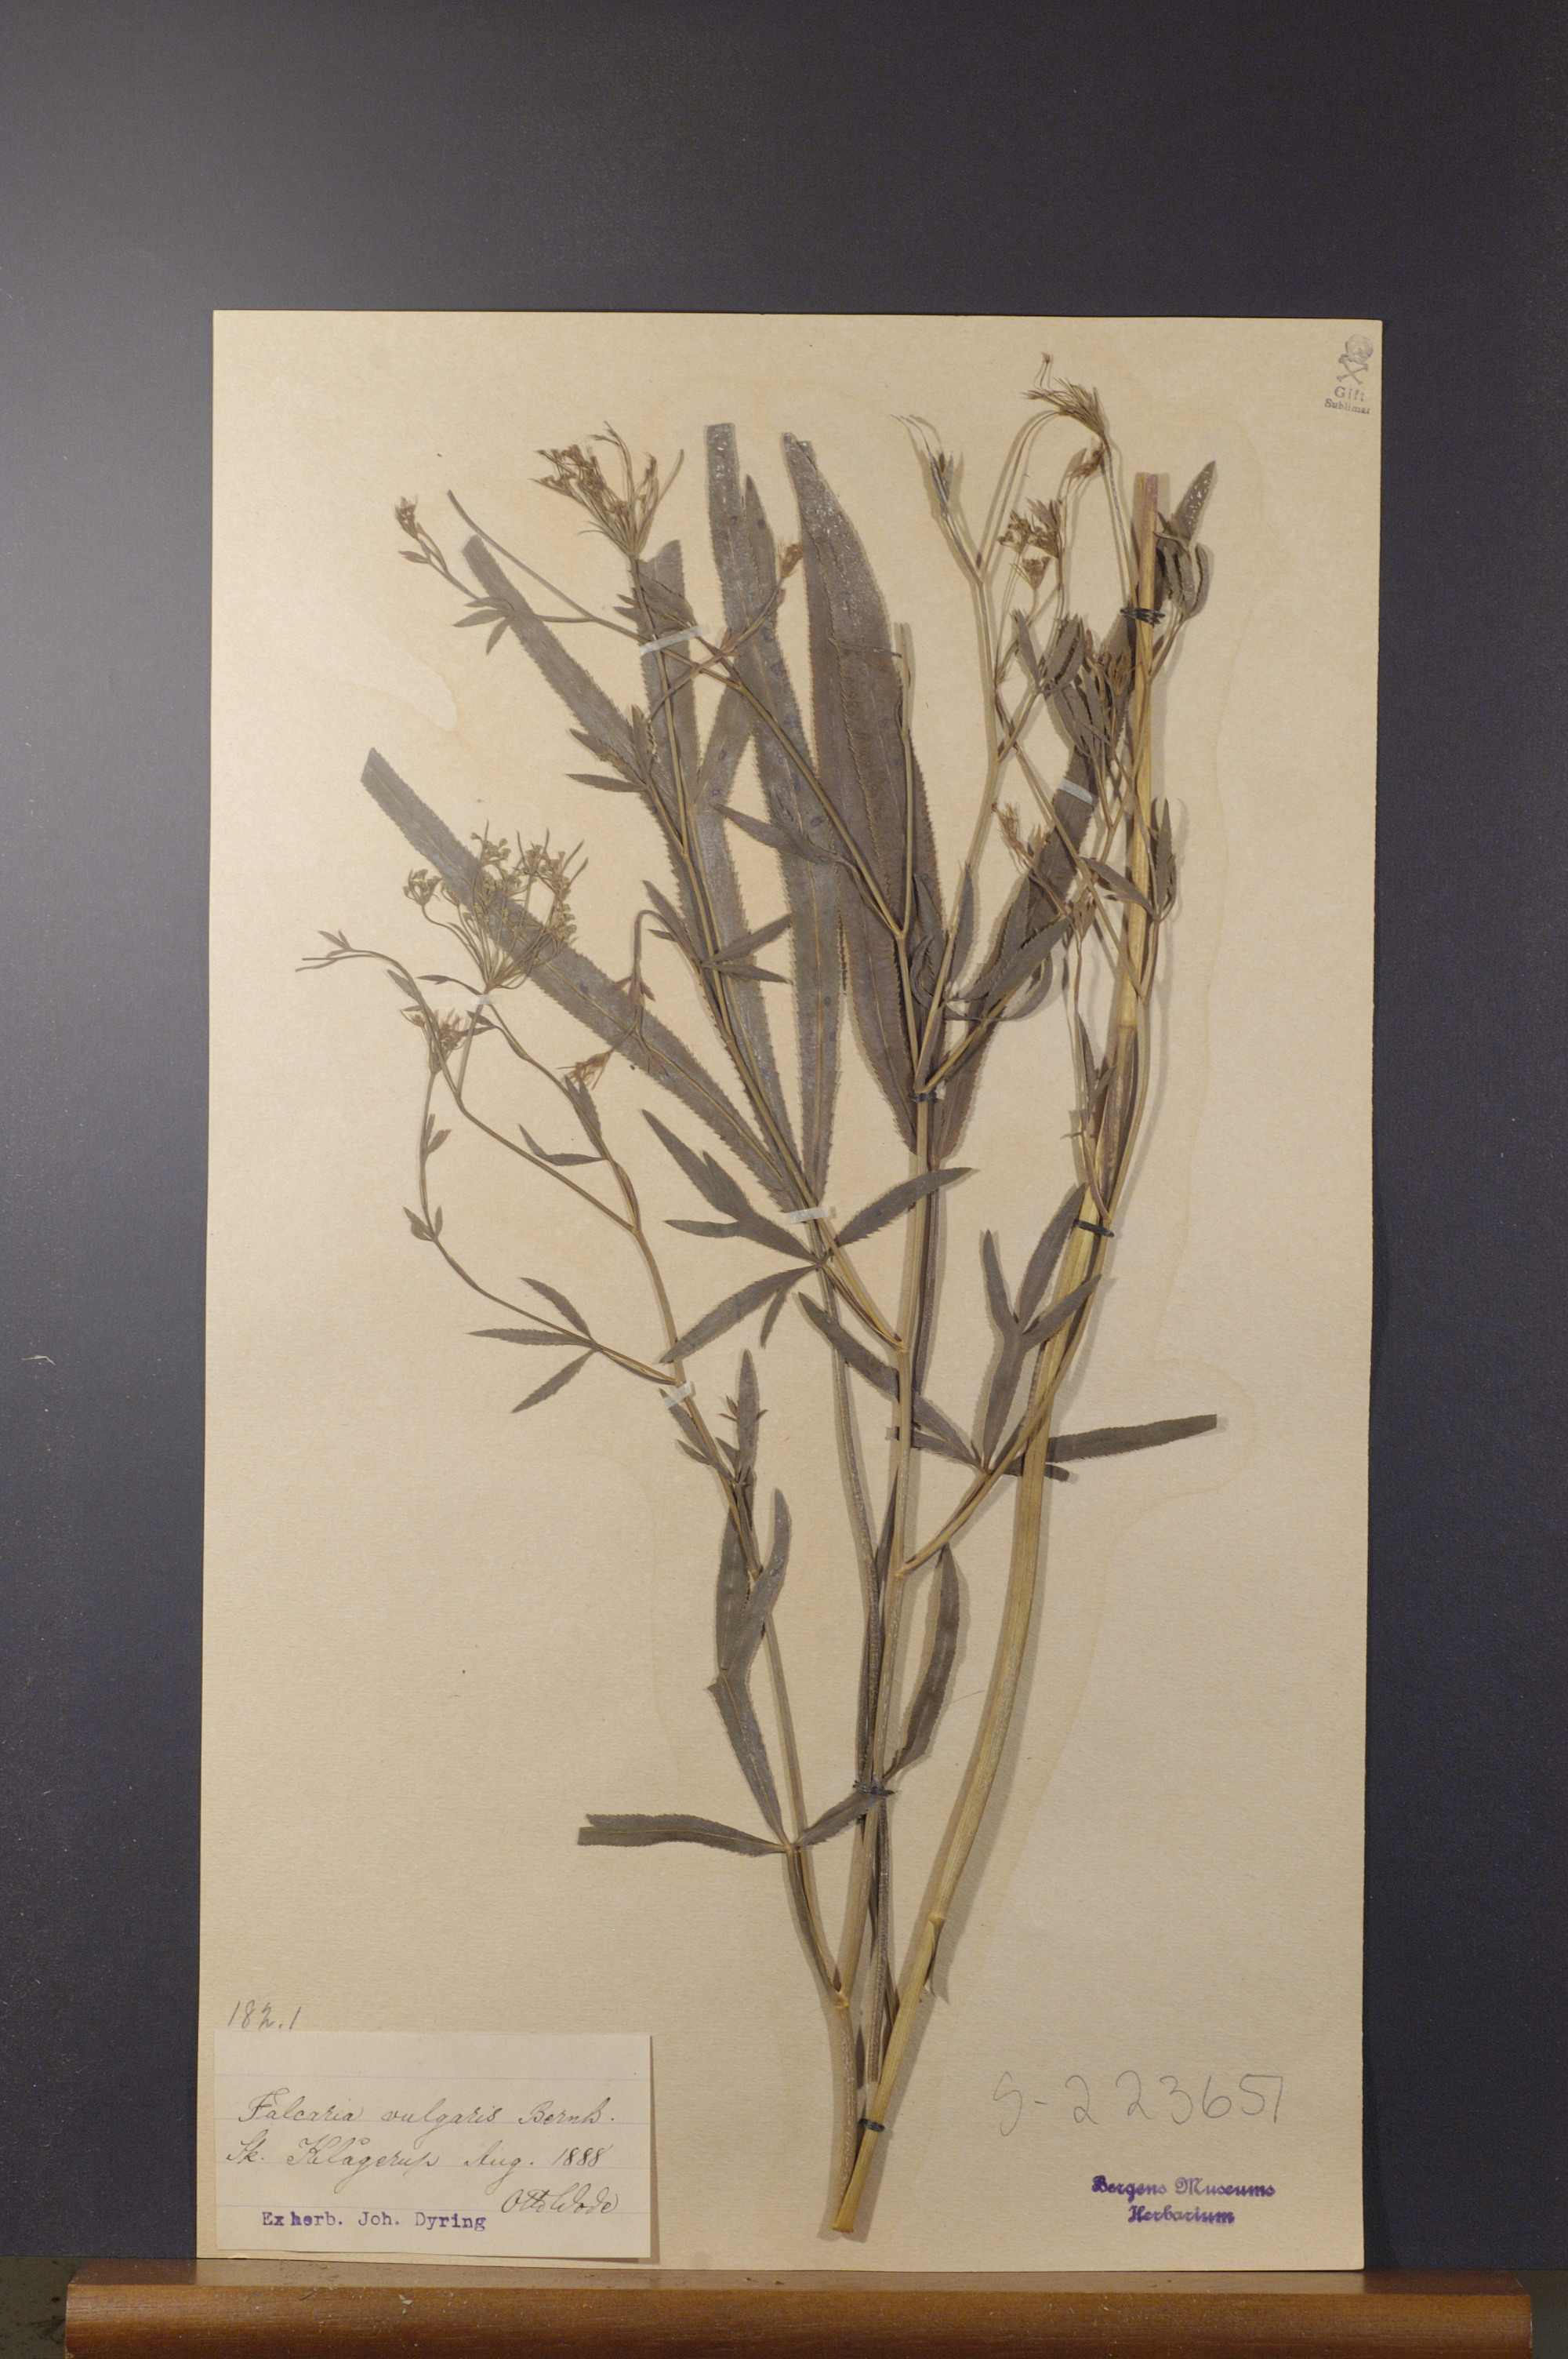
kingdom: Plantae
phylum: Tracheophyta
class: Magnoliopsida
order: Apiales
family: Apiaceae
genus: Falcaria
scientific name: Falcaria vulgaris
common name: Longleaf
